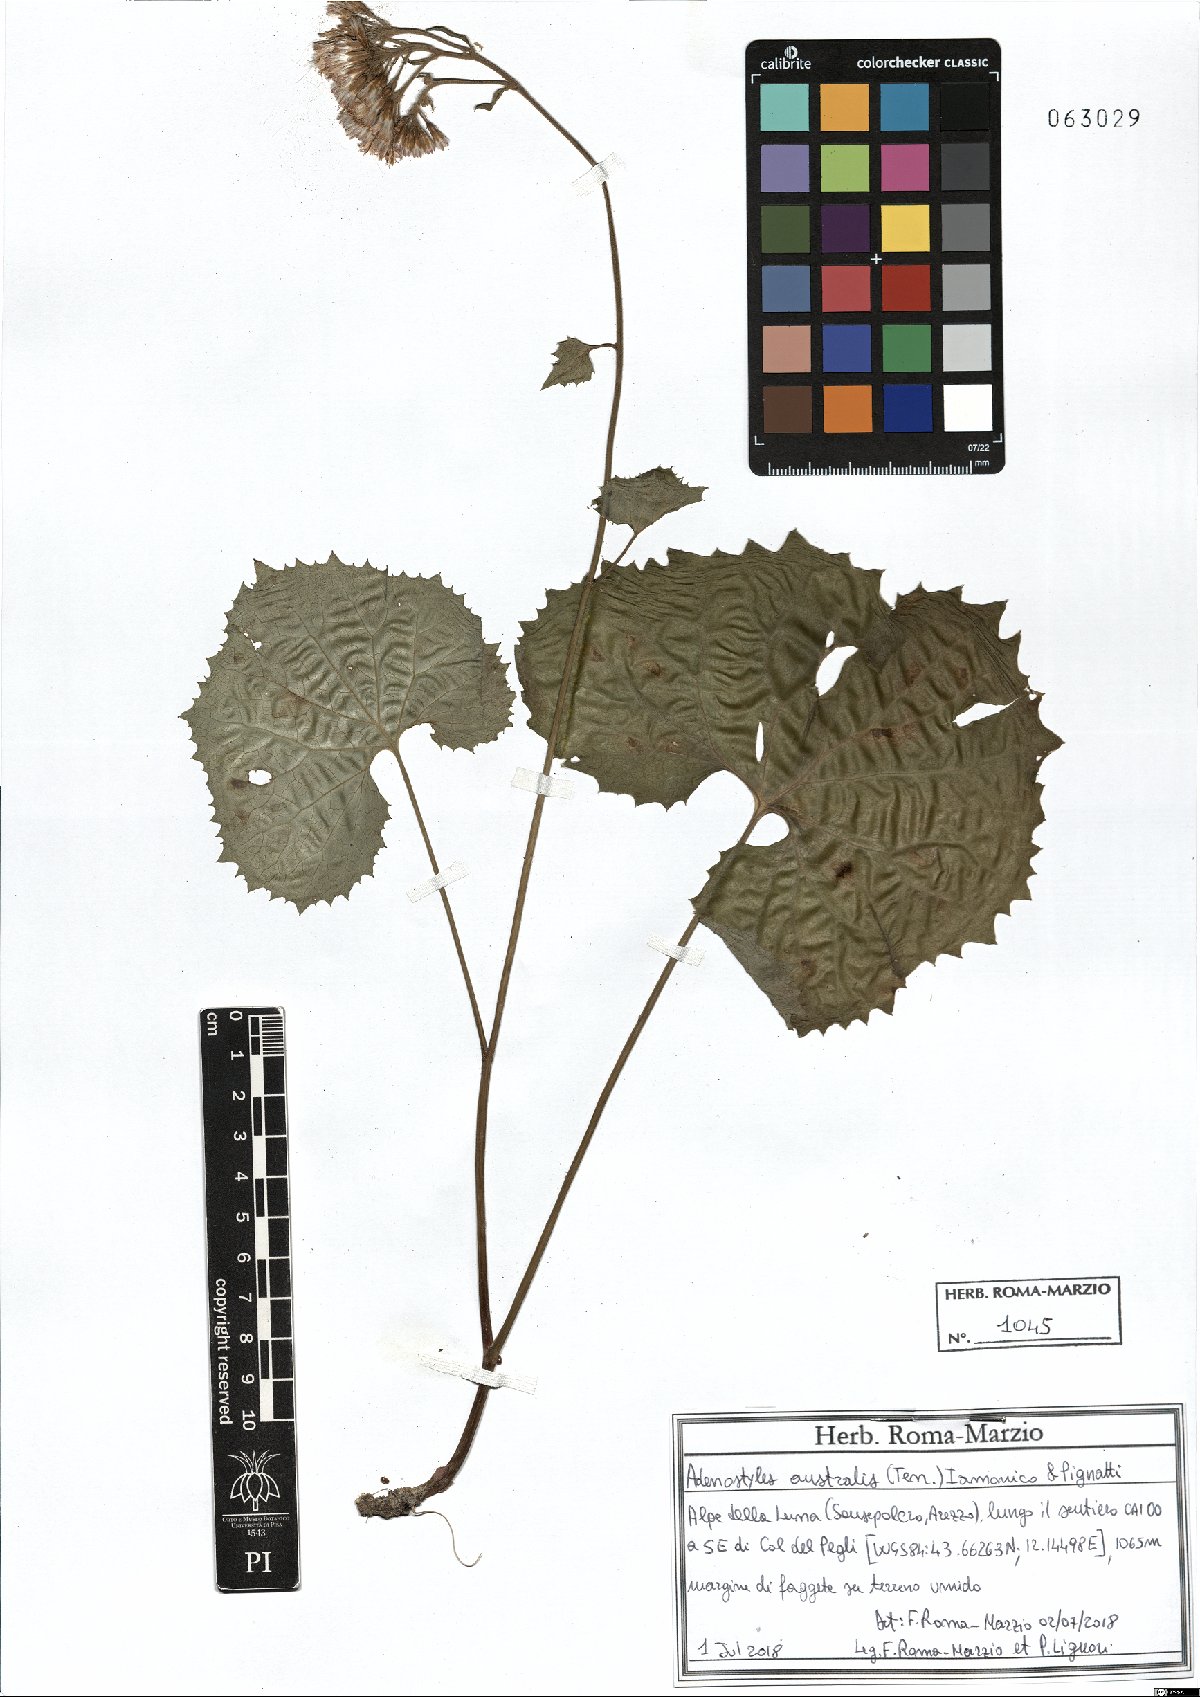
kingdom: Plantae
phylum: Tracheophyta
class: Magnoliopsida
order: Asterales
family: Asteraceae
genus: Adenostyles
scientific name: Adenostyles australis
